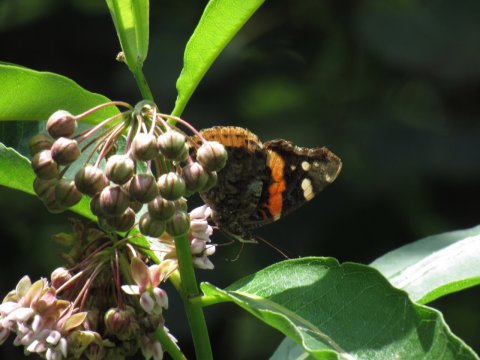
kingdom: Animalia
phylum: Arthropoda
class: Insecta
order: Lepidoptera
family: Nymphalidae
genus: Vanessa
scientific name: Vanessa atalanta
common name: Red Admiral
